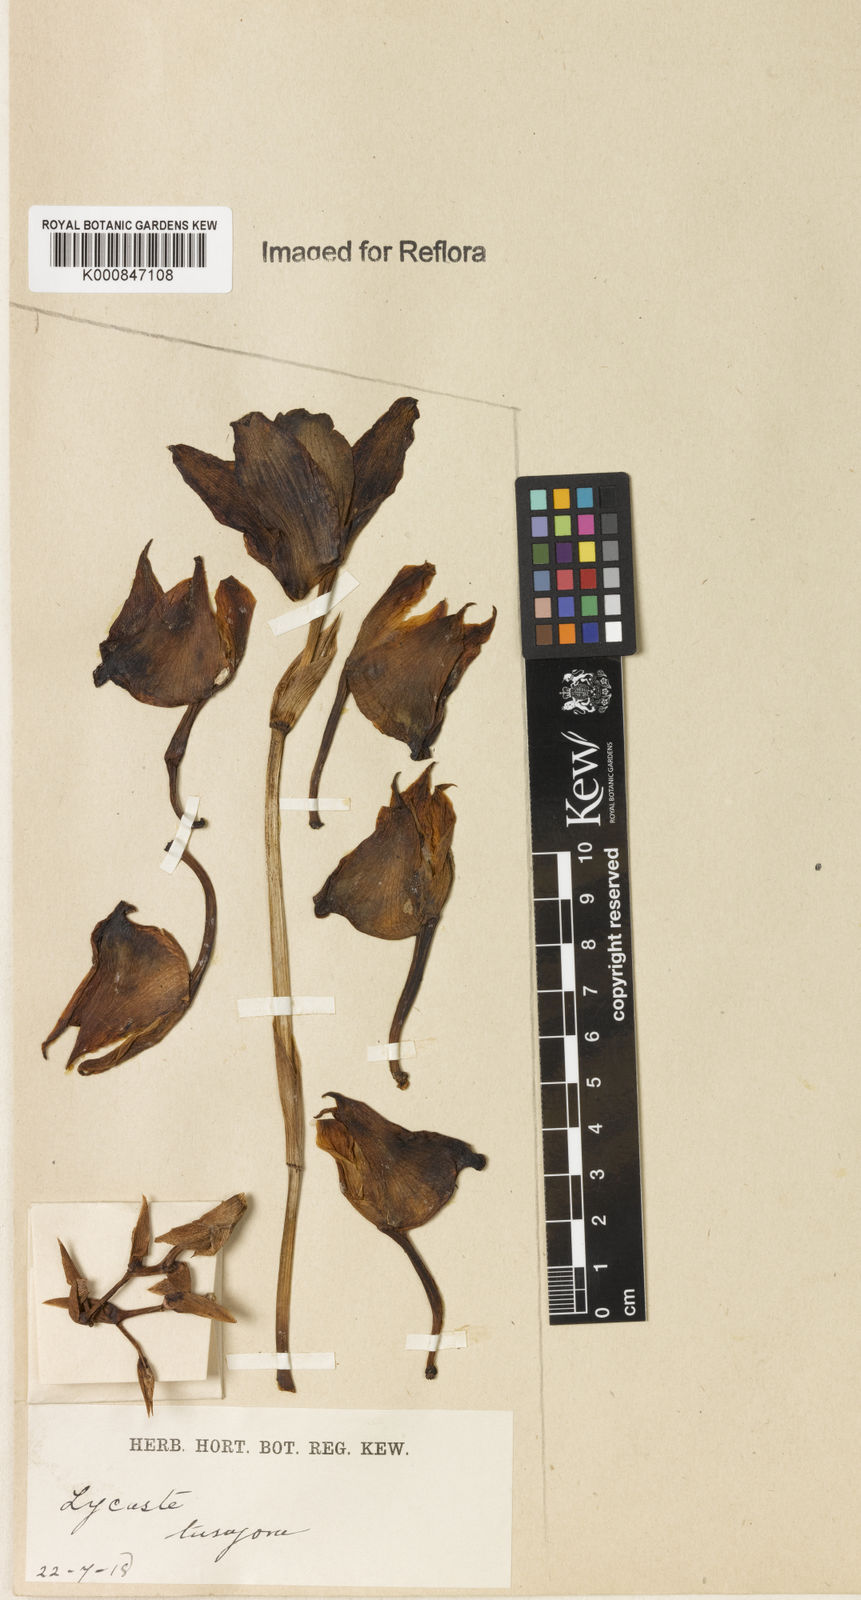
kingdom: Plantae
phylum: Tracheophyta
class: Liliopsida
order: Asparagales
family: Orchidaceae
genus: Bifrenaria
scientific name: Bifrenaria tetragona
